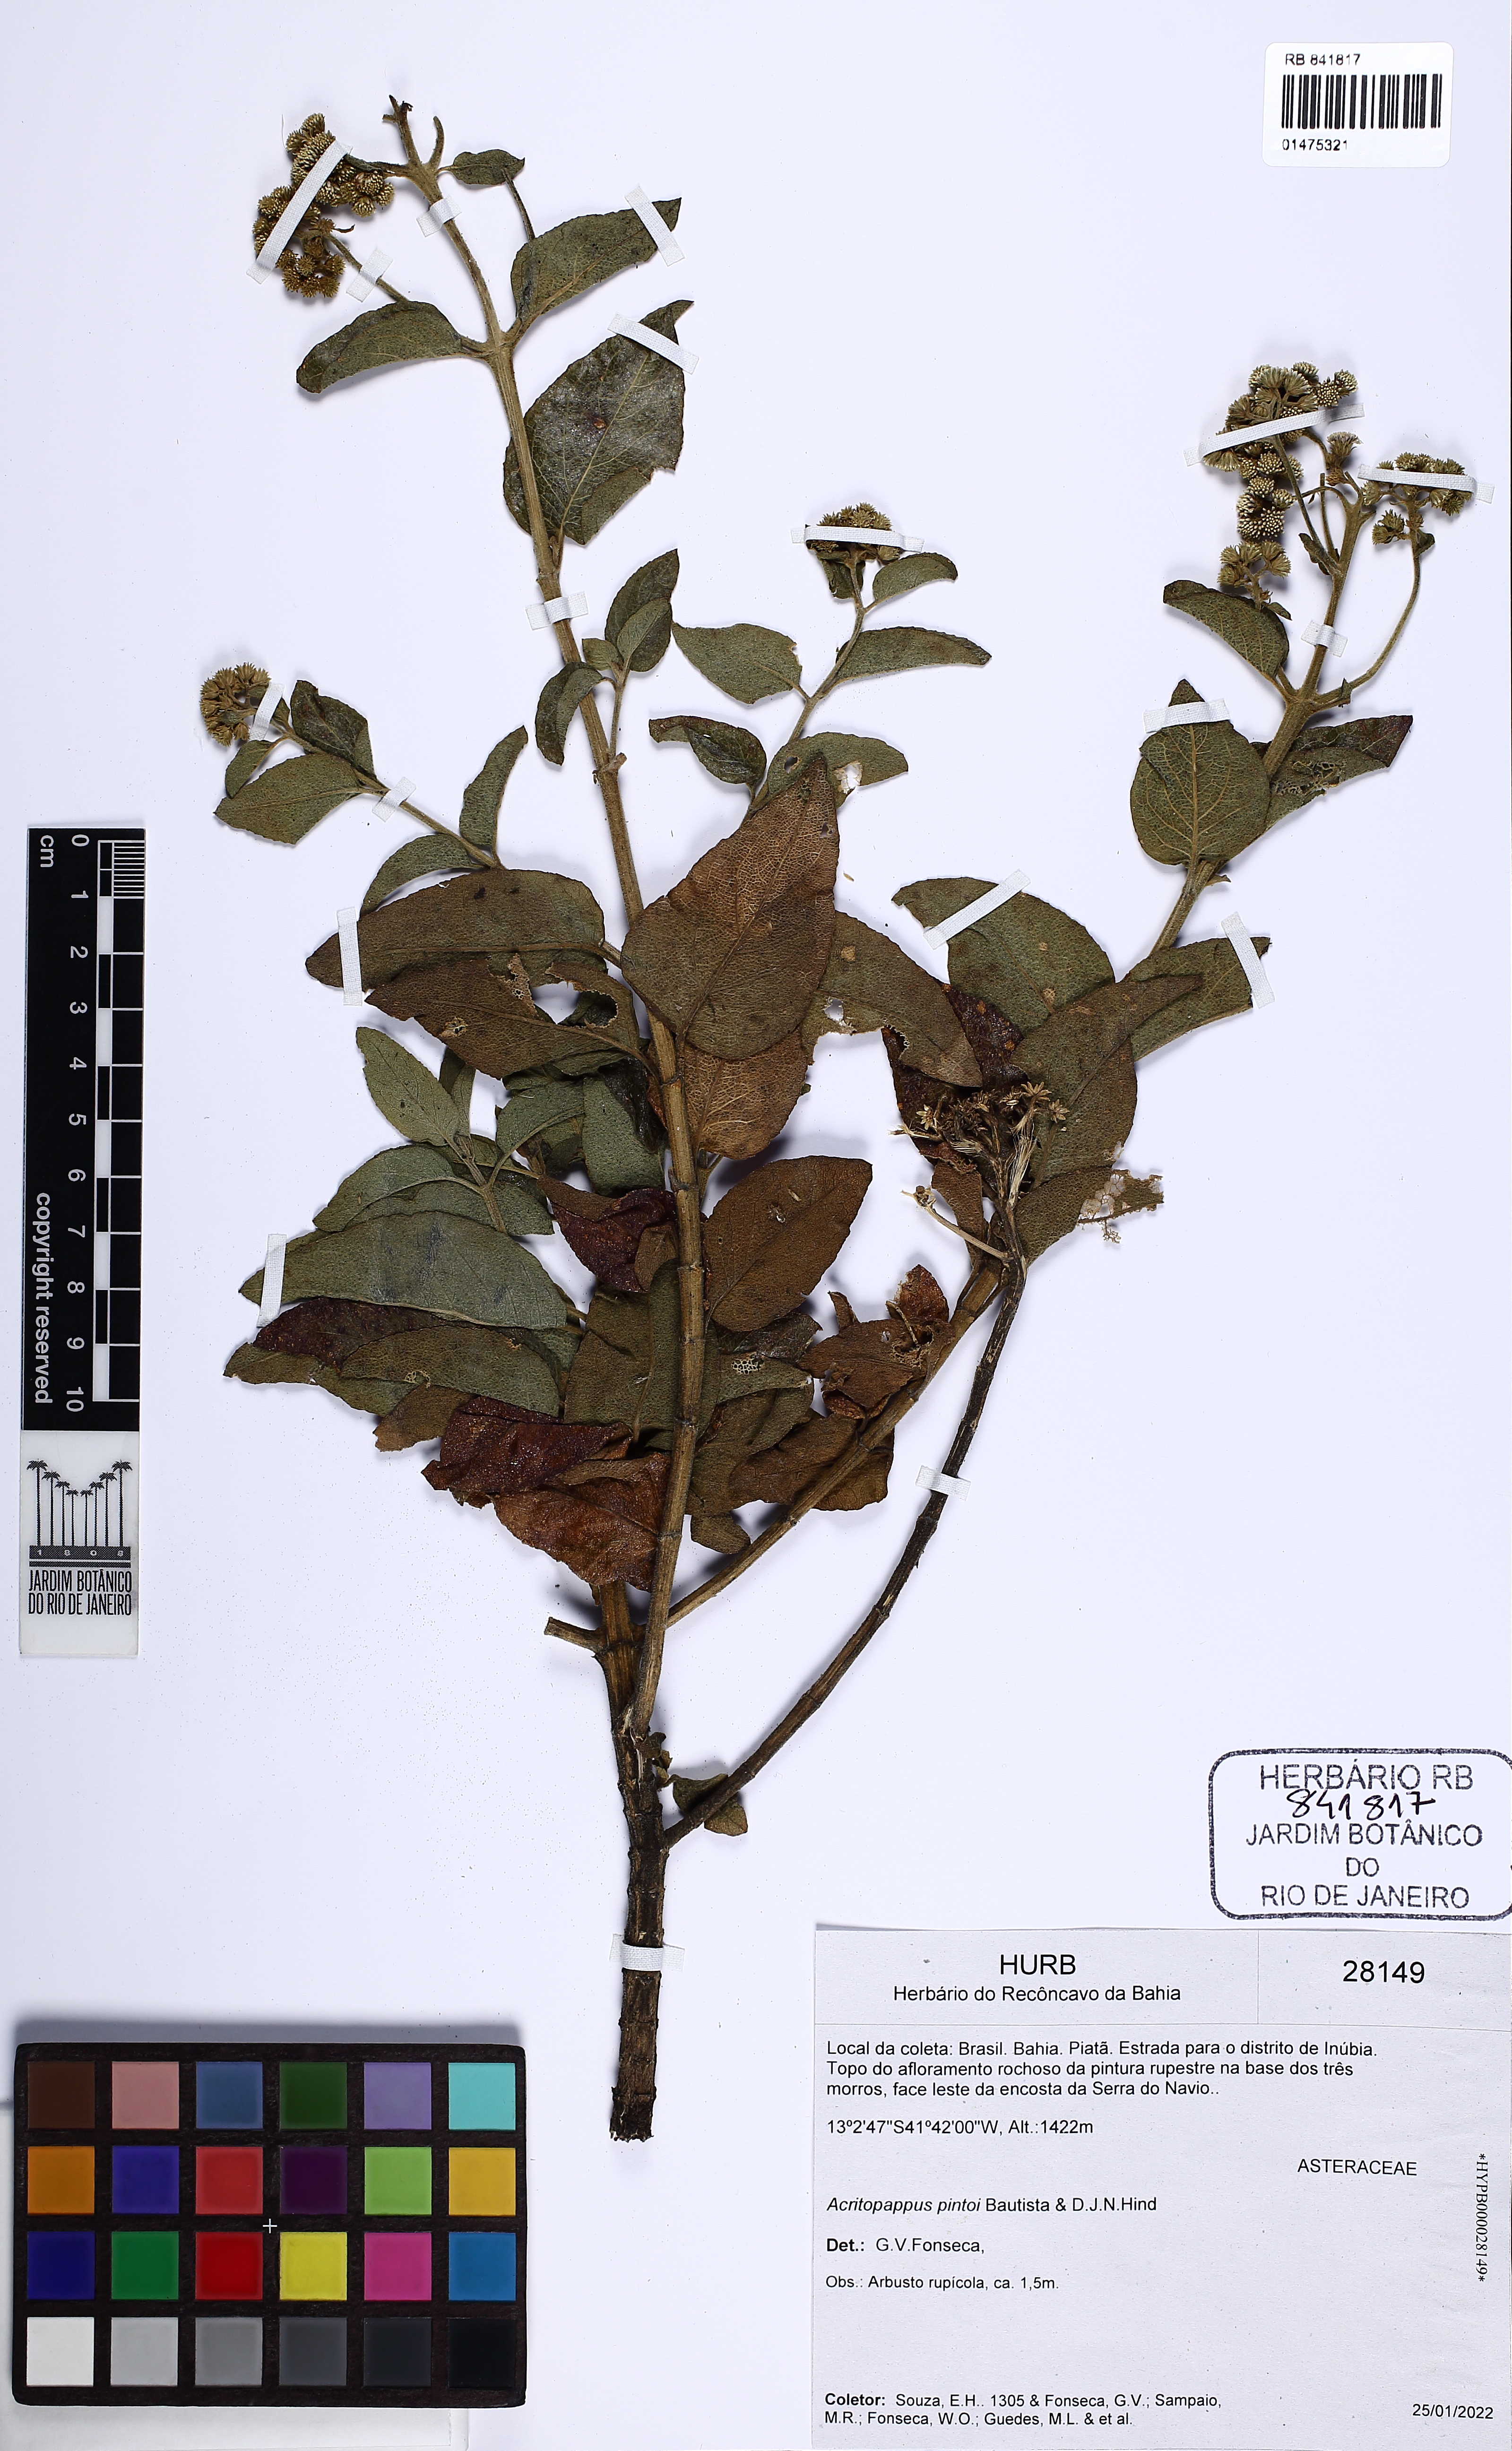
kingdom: Plantae
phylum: Tracheophyta
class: Magnoliopsida
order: Asterales
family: Asteraceae
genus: Acritopappus
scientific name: Acritopappus pintoi
